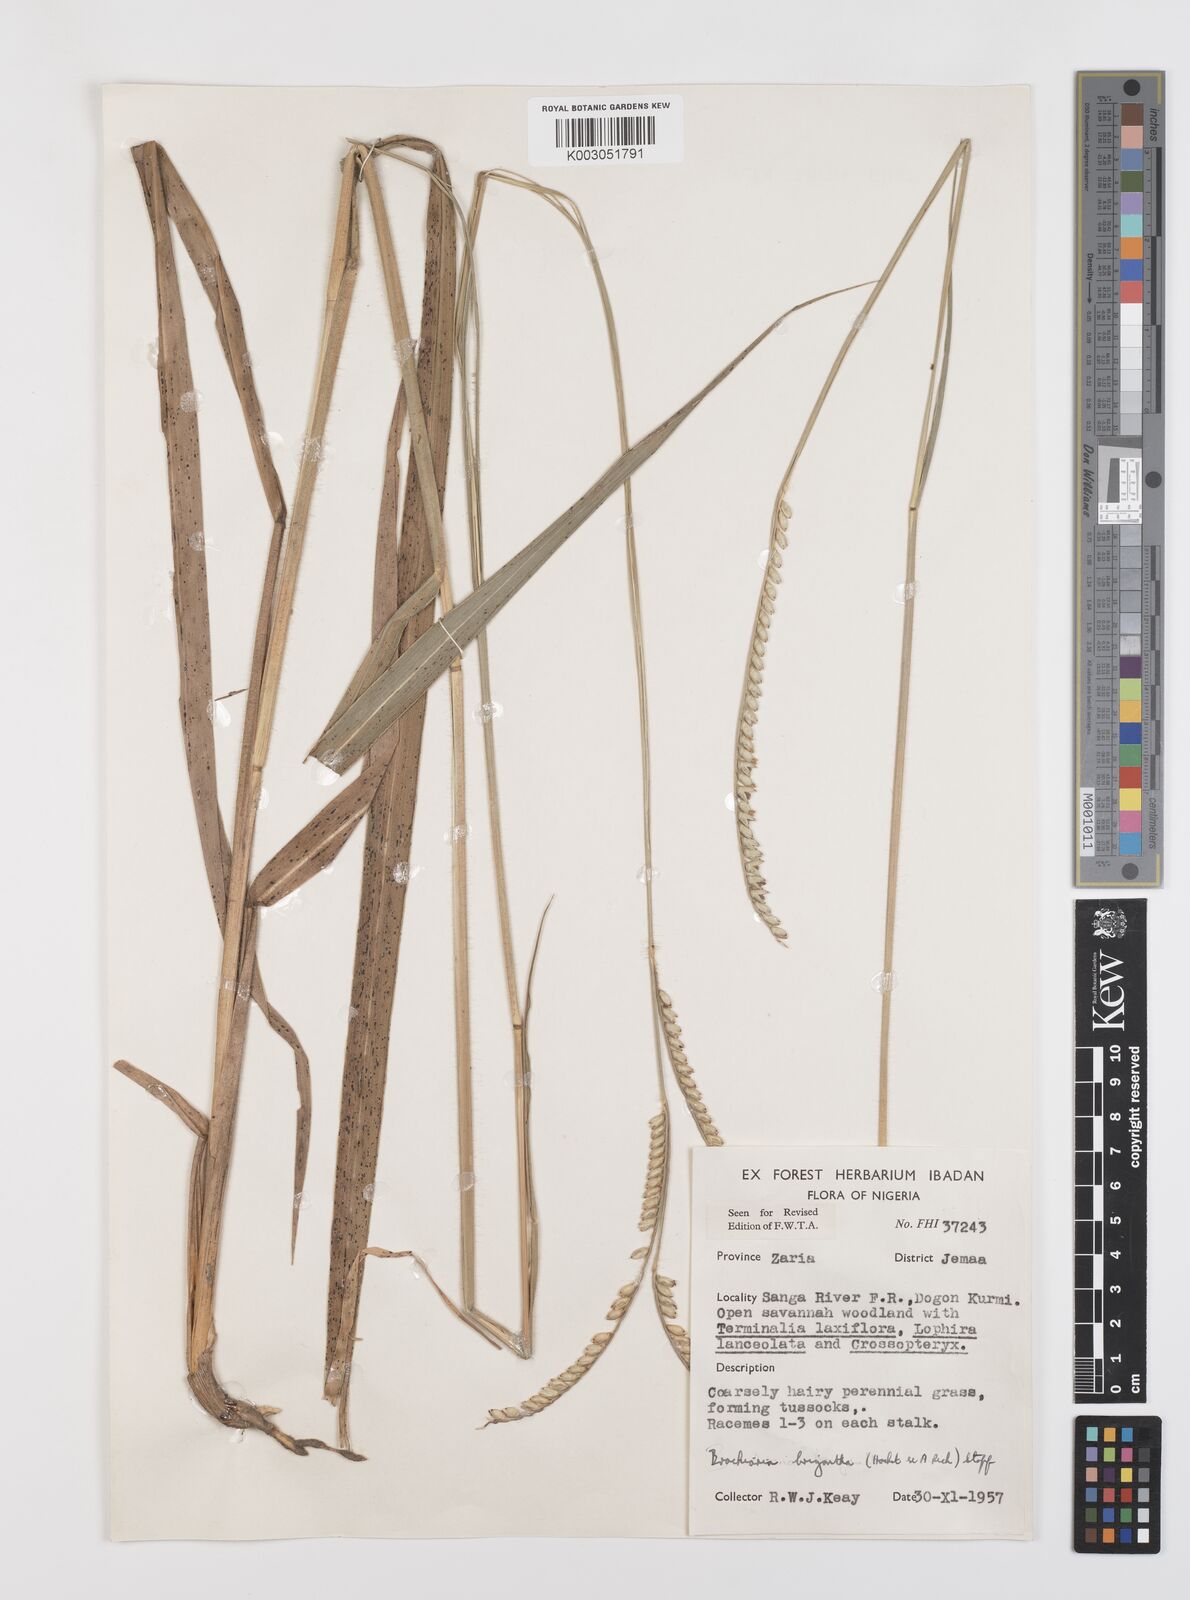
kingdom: Plantae
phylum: Tracheophyta
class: Liliopsida
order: Poales
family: Poaceae
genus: Urochloa
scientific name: Urochloa brizantha
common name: Palisade signalgrass
